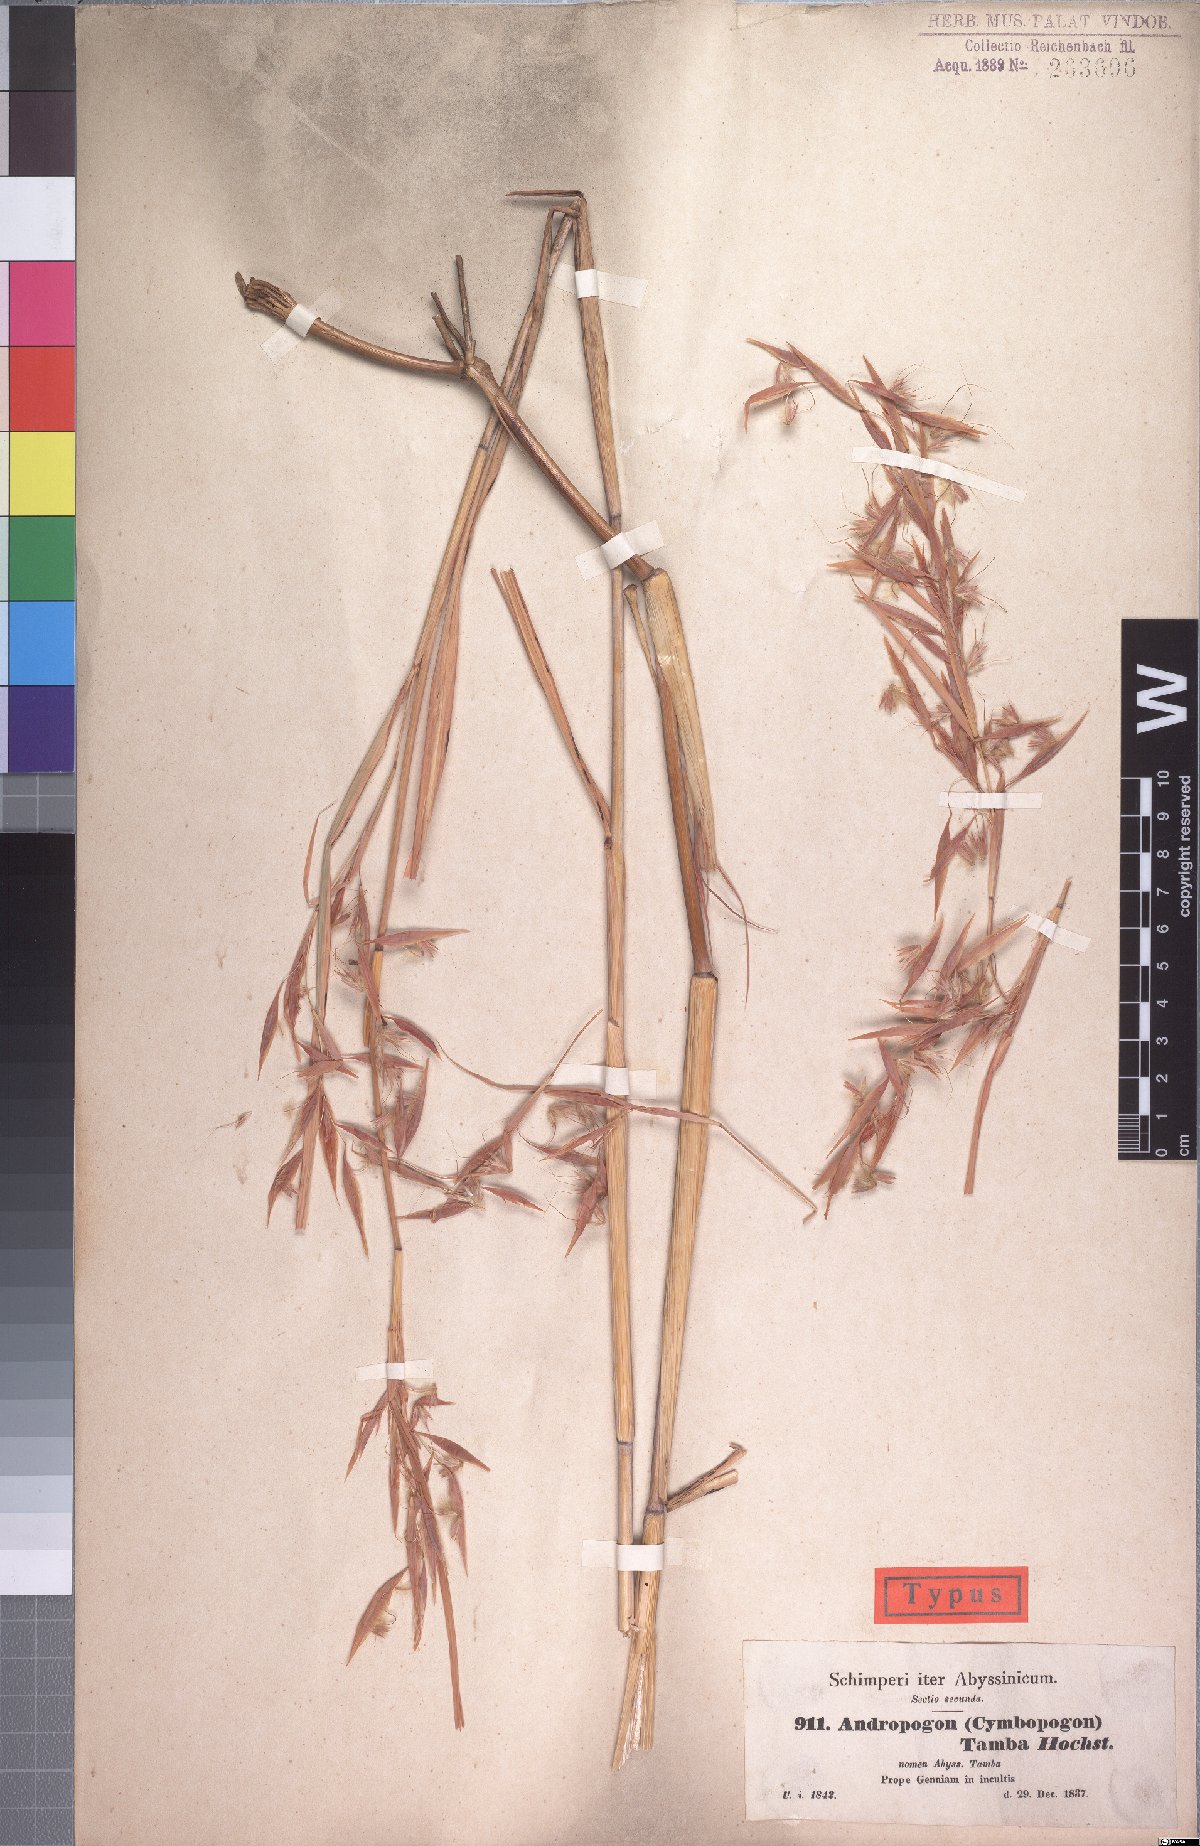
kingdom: Plantae
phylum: Tracheophyta
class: Liliopsida
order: Poales
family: Poaceae
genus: Hyparrhenia
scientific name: Hyparrhenia tamba
